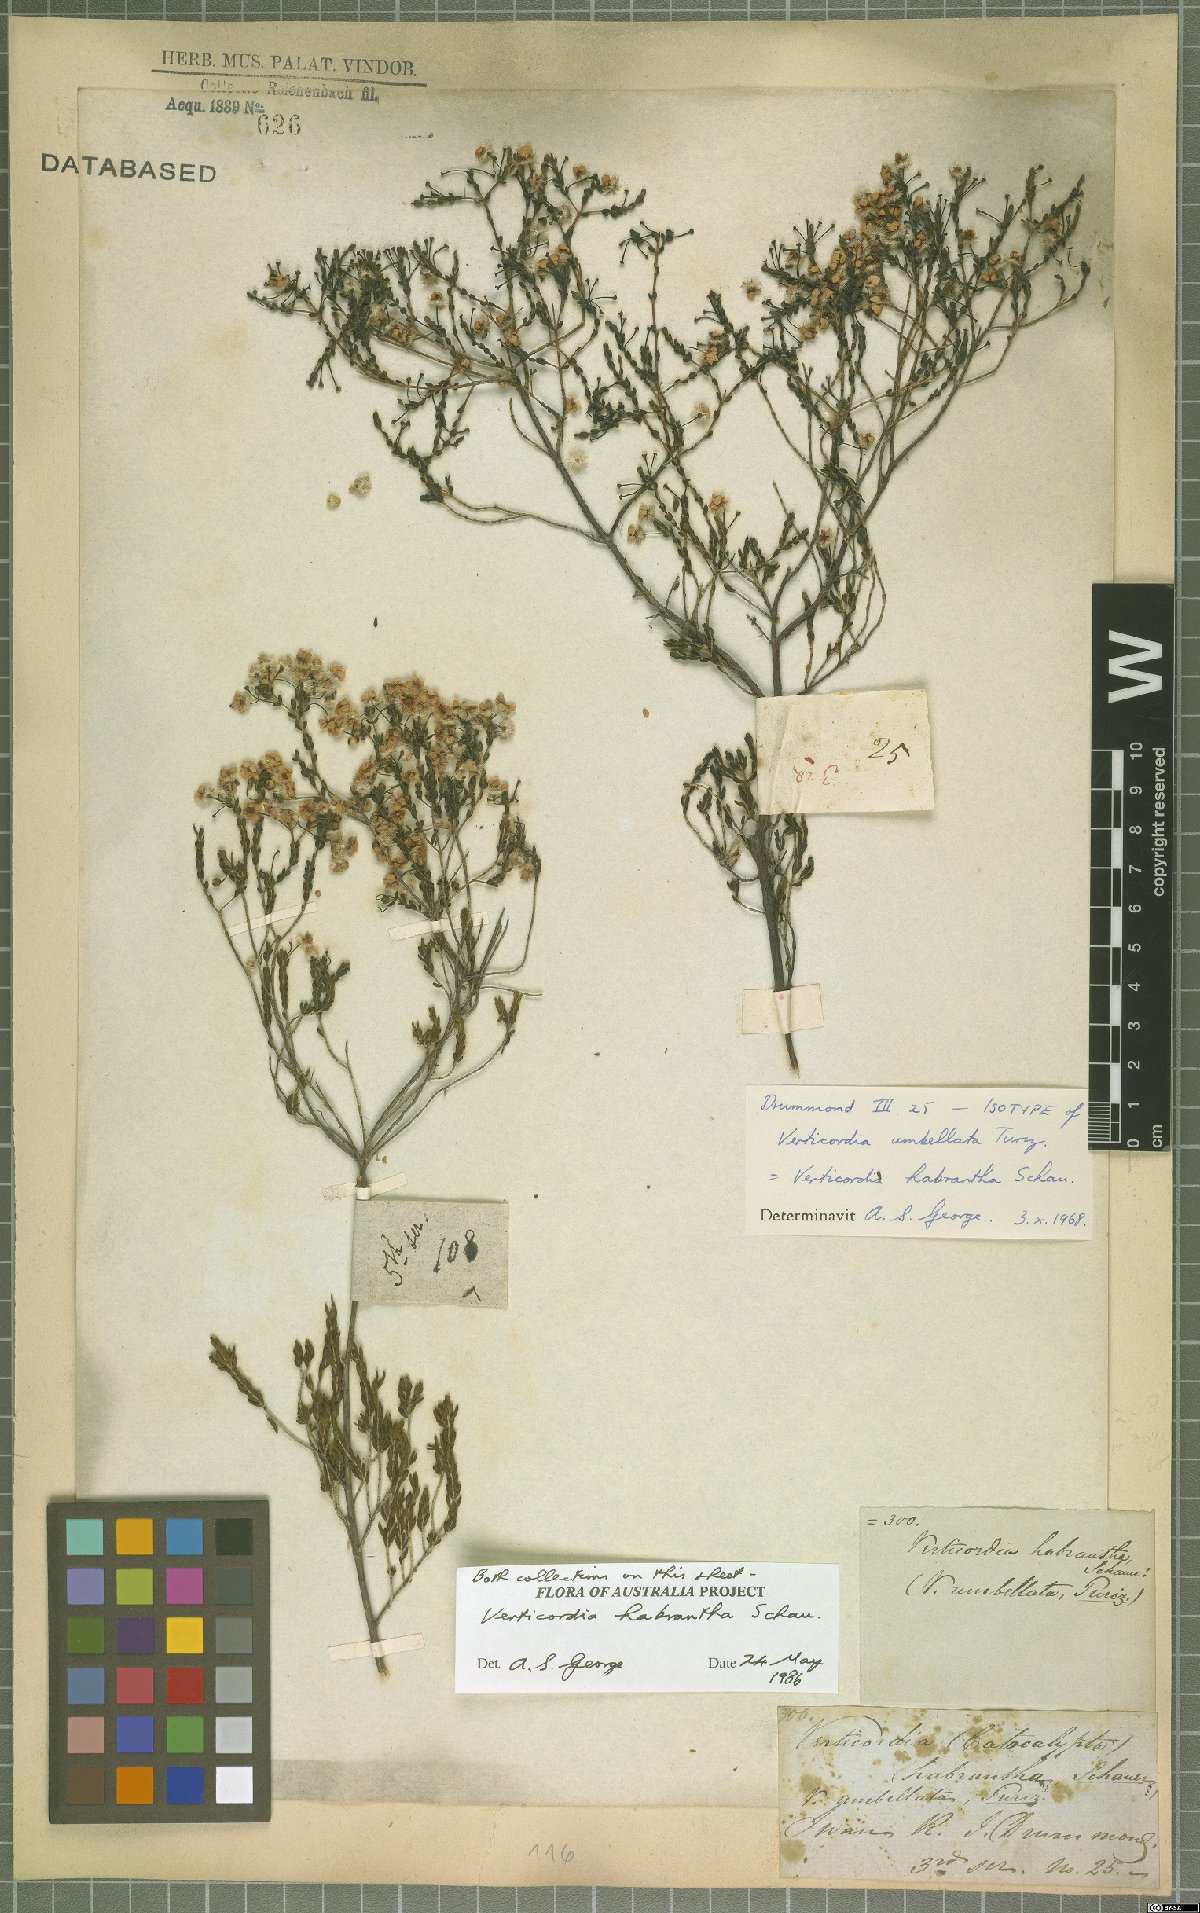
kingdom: Plantae
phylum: Tracheophyta
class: Magnoliopsida
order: Myrtales
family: Myrtaceae
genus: Verticordia
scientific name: Verticordia habrantha
